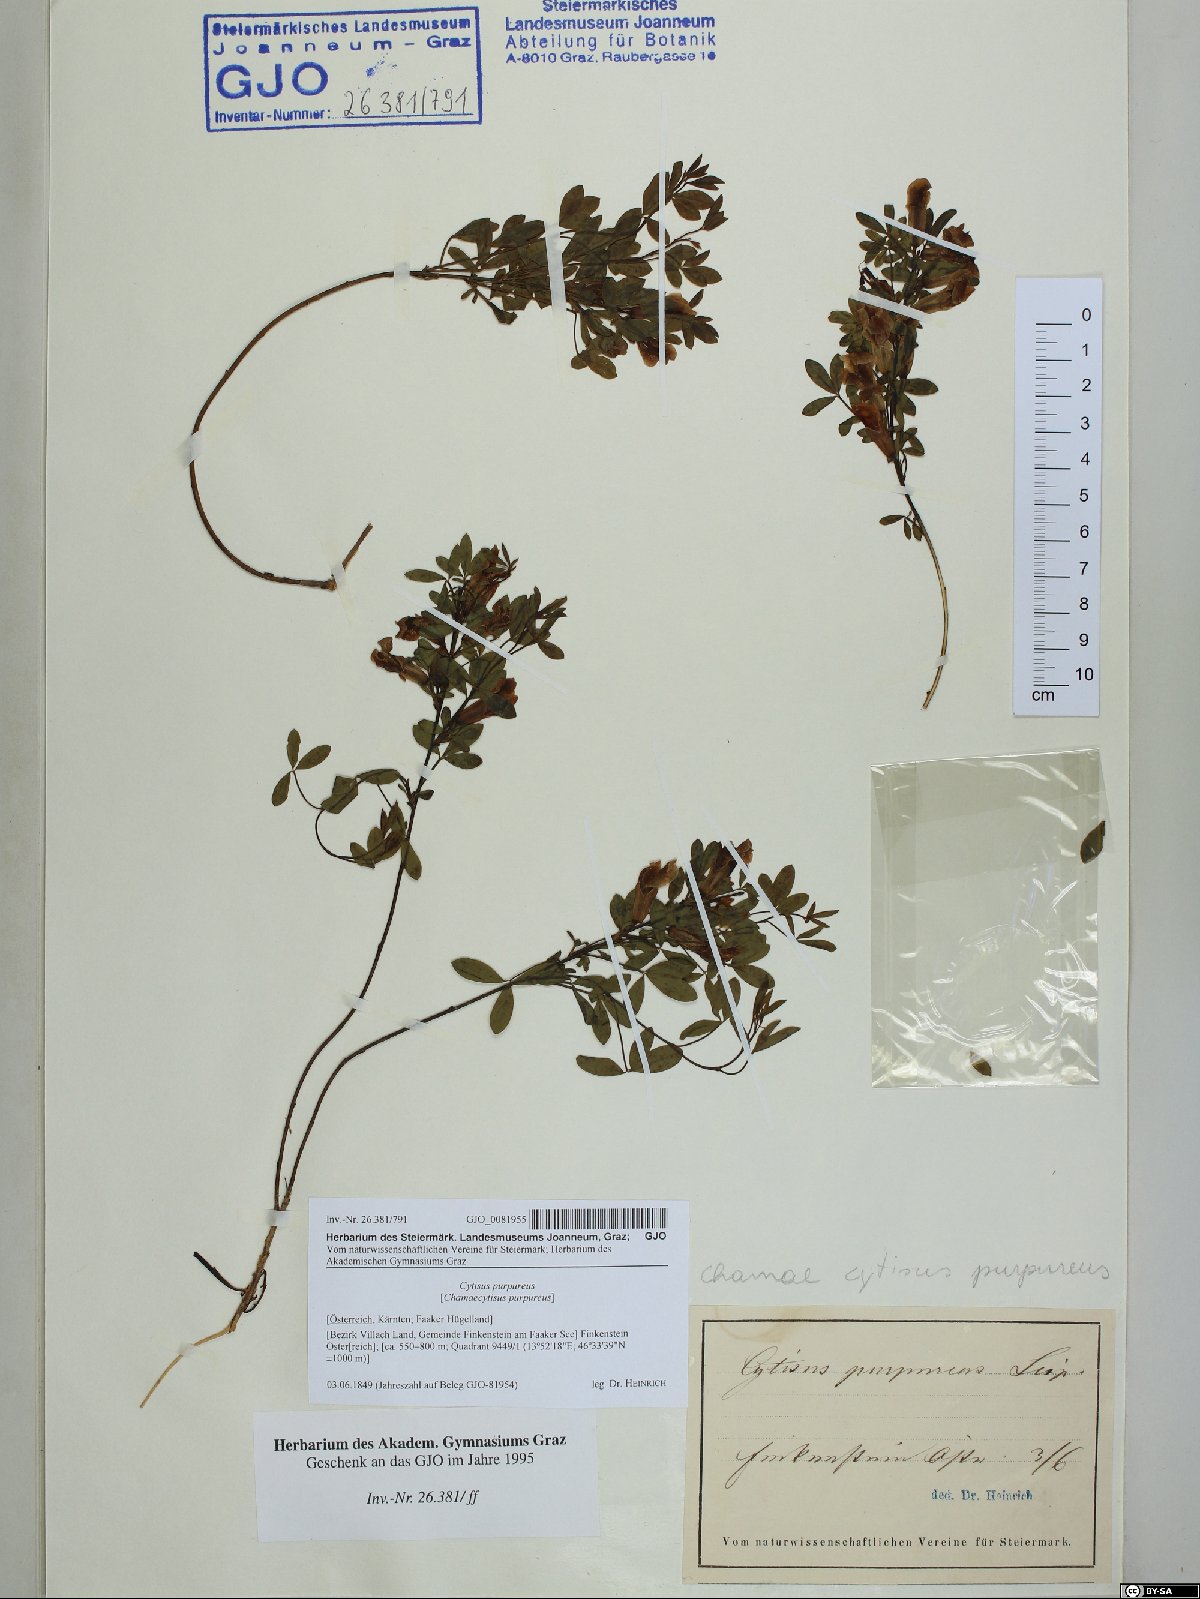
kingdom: Plantae
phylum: Tracheophyta
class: Magnoliopsida
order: Fabales
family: Fabaceae
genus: Chamaecytisus
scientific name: Chamaecytisus purpureus
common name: Purple broom
